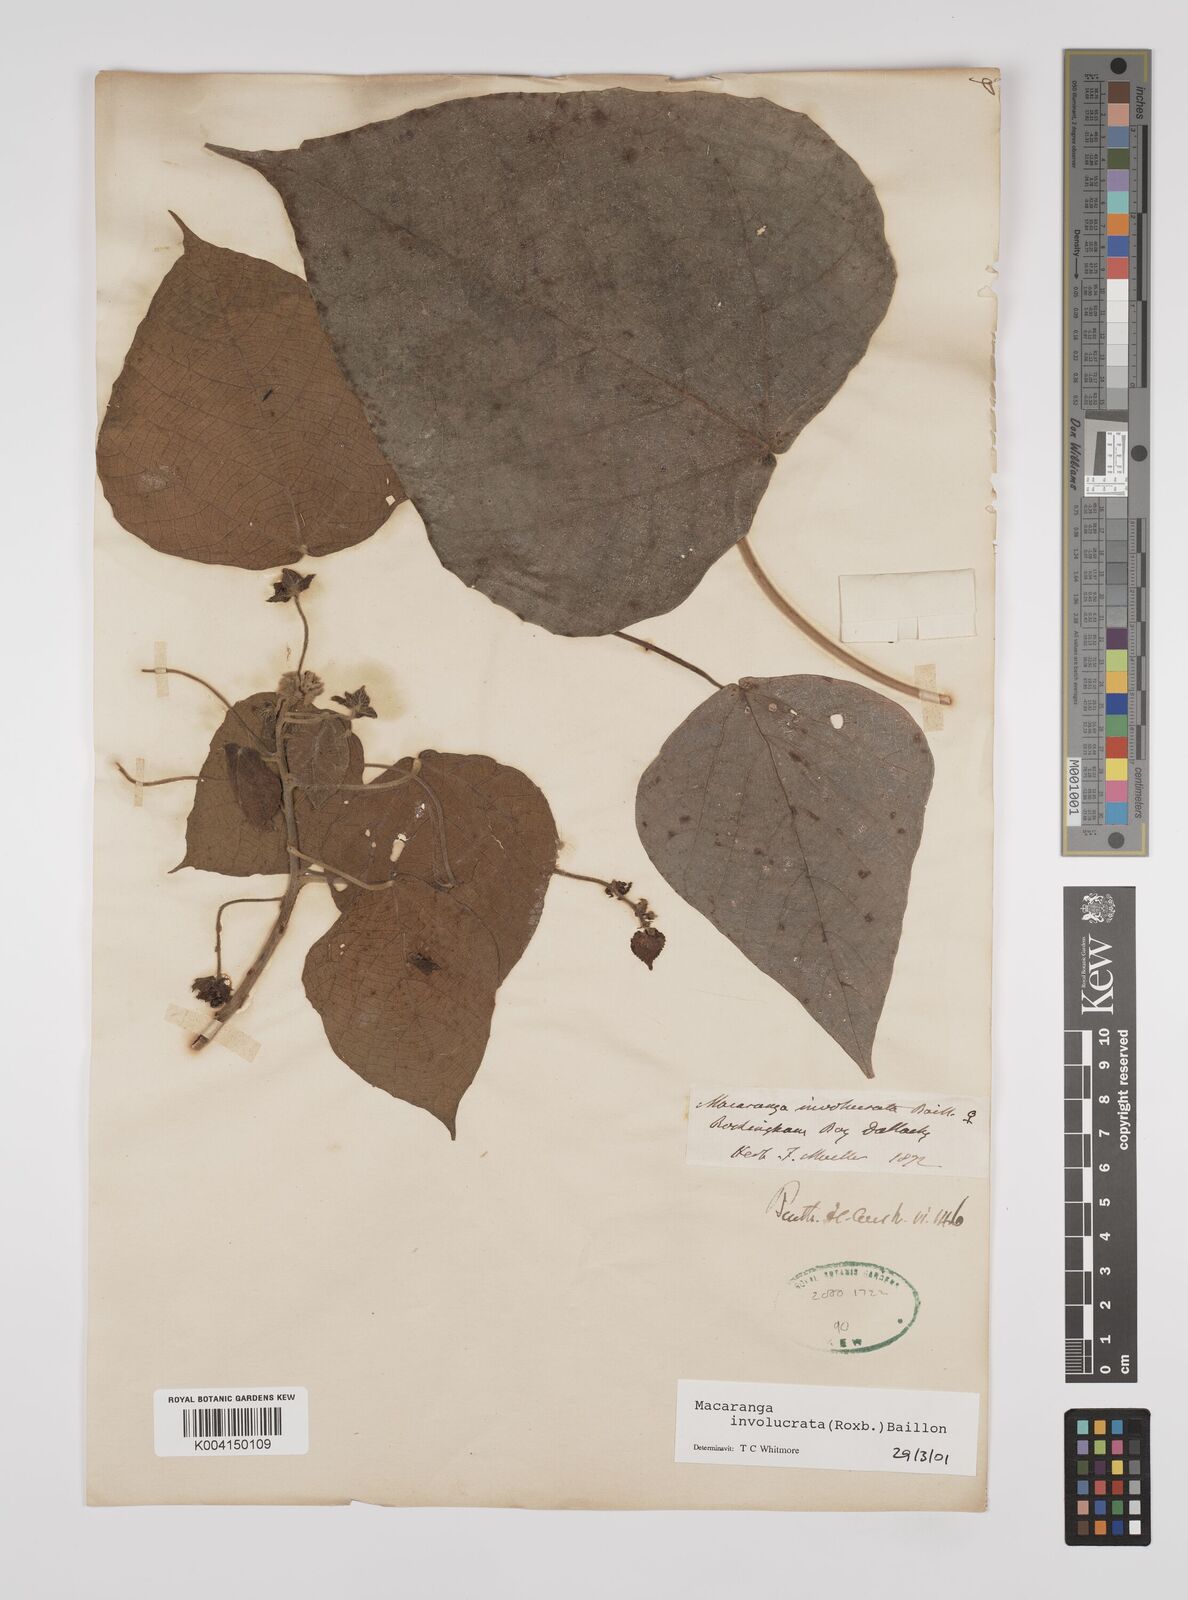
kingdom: Plantae
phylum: Tracheophyta
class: Magnoliopsida
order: Malpighiales
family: Euphorbiaceae
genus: Macaranga
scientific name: Macaranga involucrata
